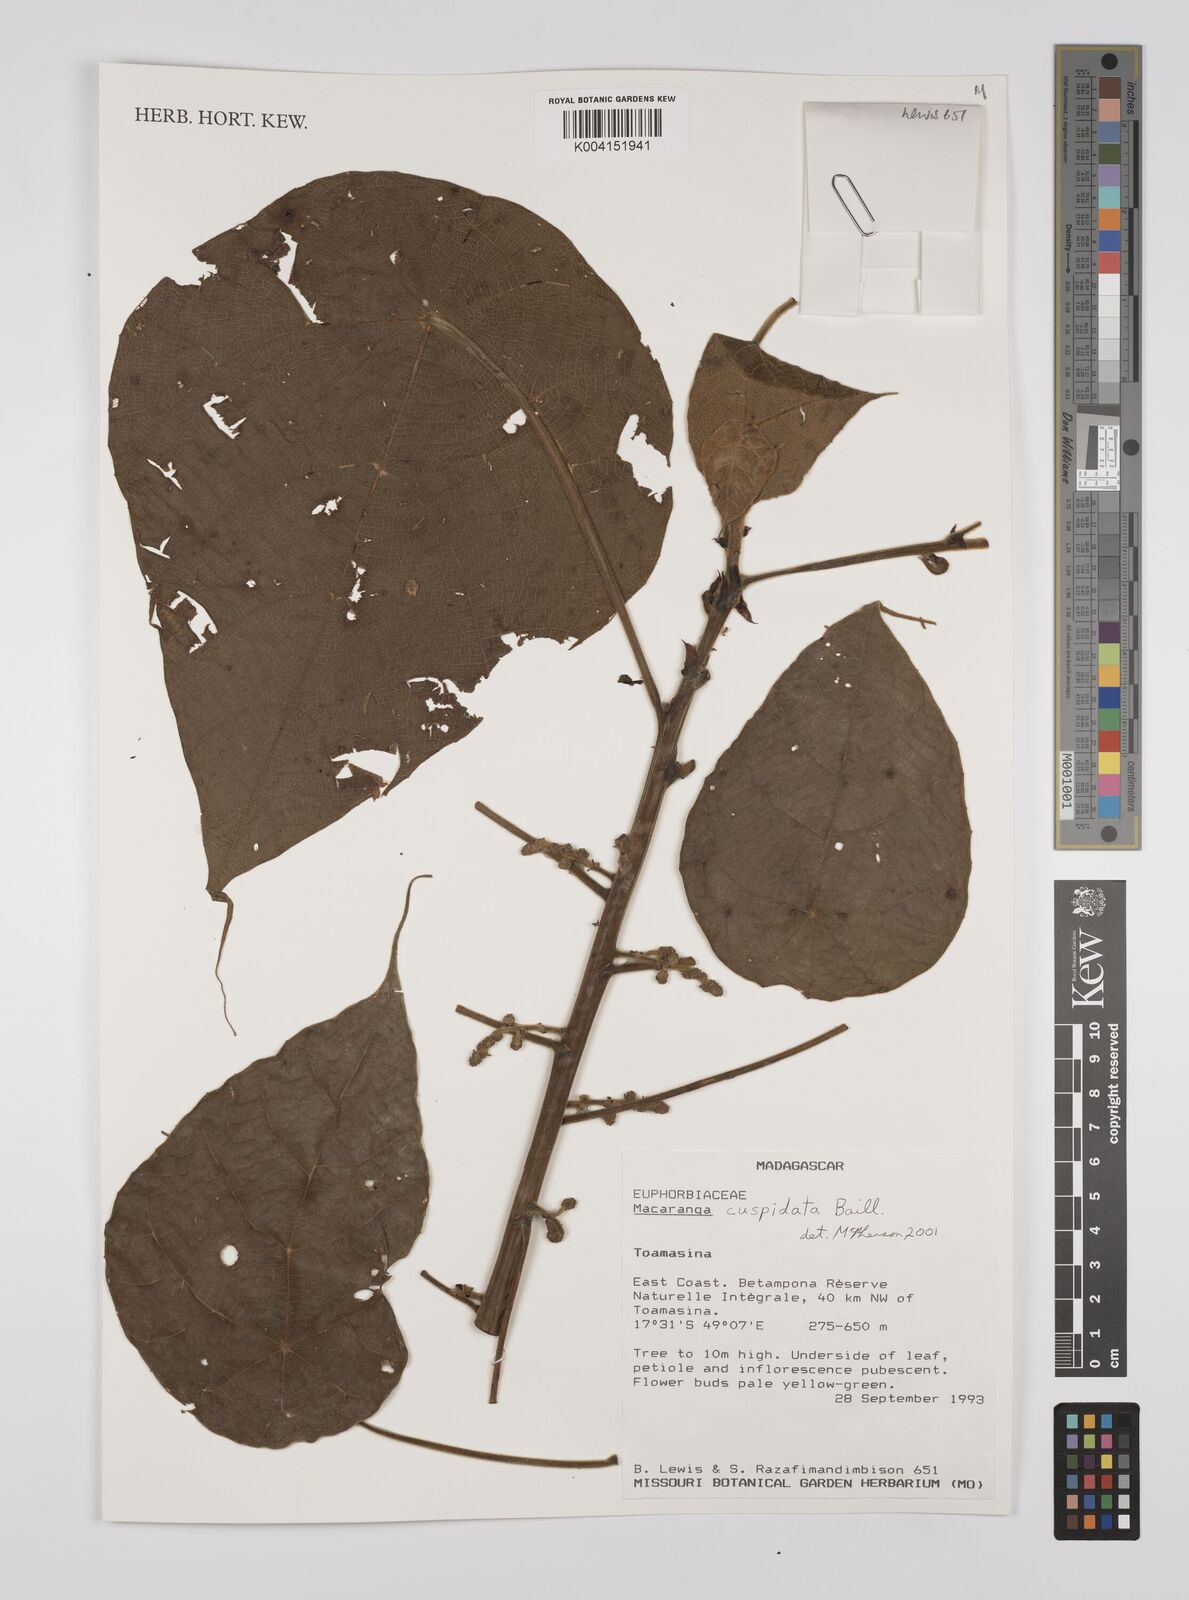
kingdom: Plantae
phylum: Tracheophyta
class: Magnoliopsida
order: Malpighiales
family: Euphorbiaceae
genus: Macaranga
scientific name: Macaranga cuspidata
